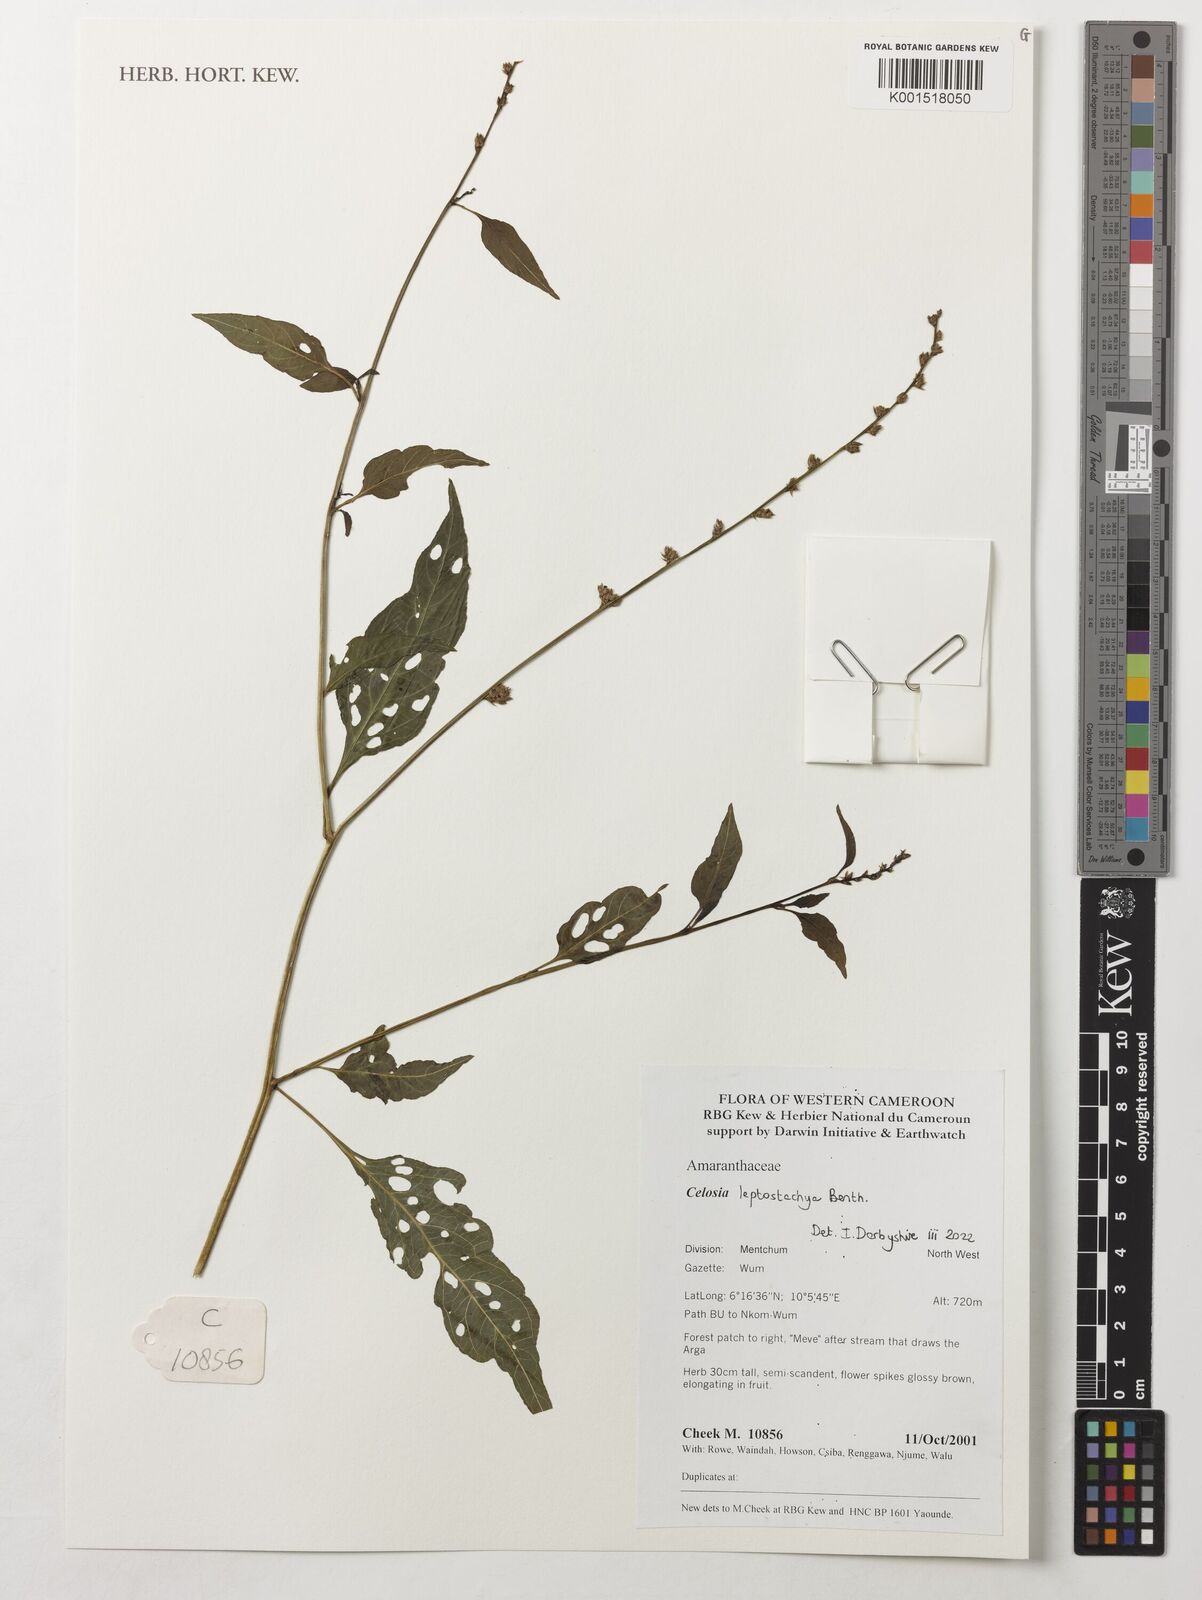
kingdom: Plantae
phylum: Tracheophyta
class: Magnoliopsida
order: Caryophyllales
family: Amaranthaceae
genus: Celosia
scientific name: Celosia leptostachya
